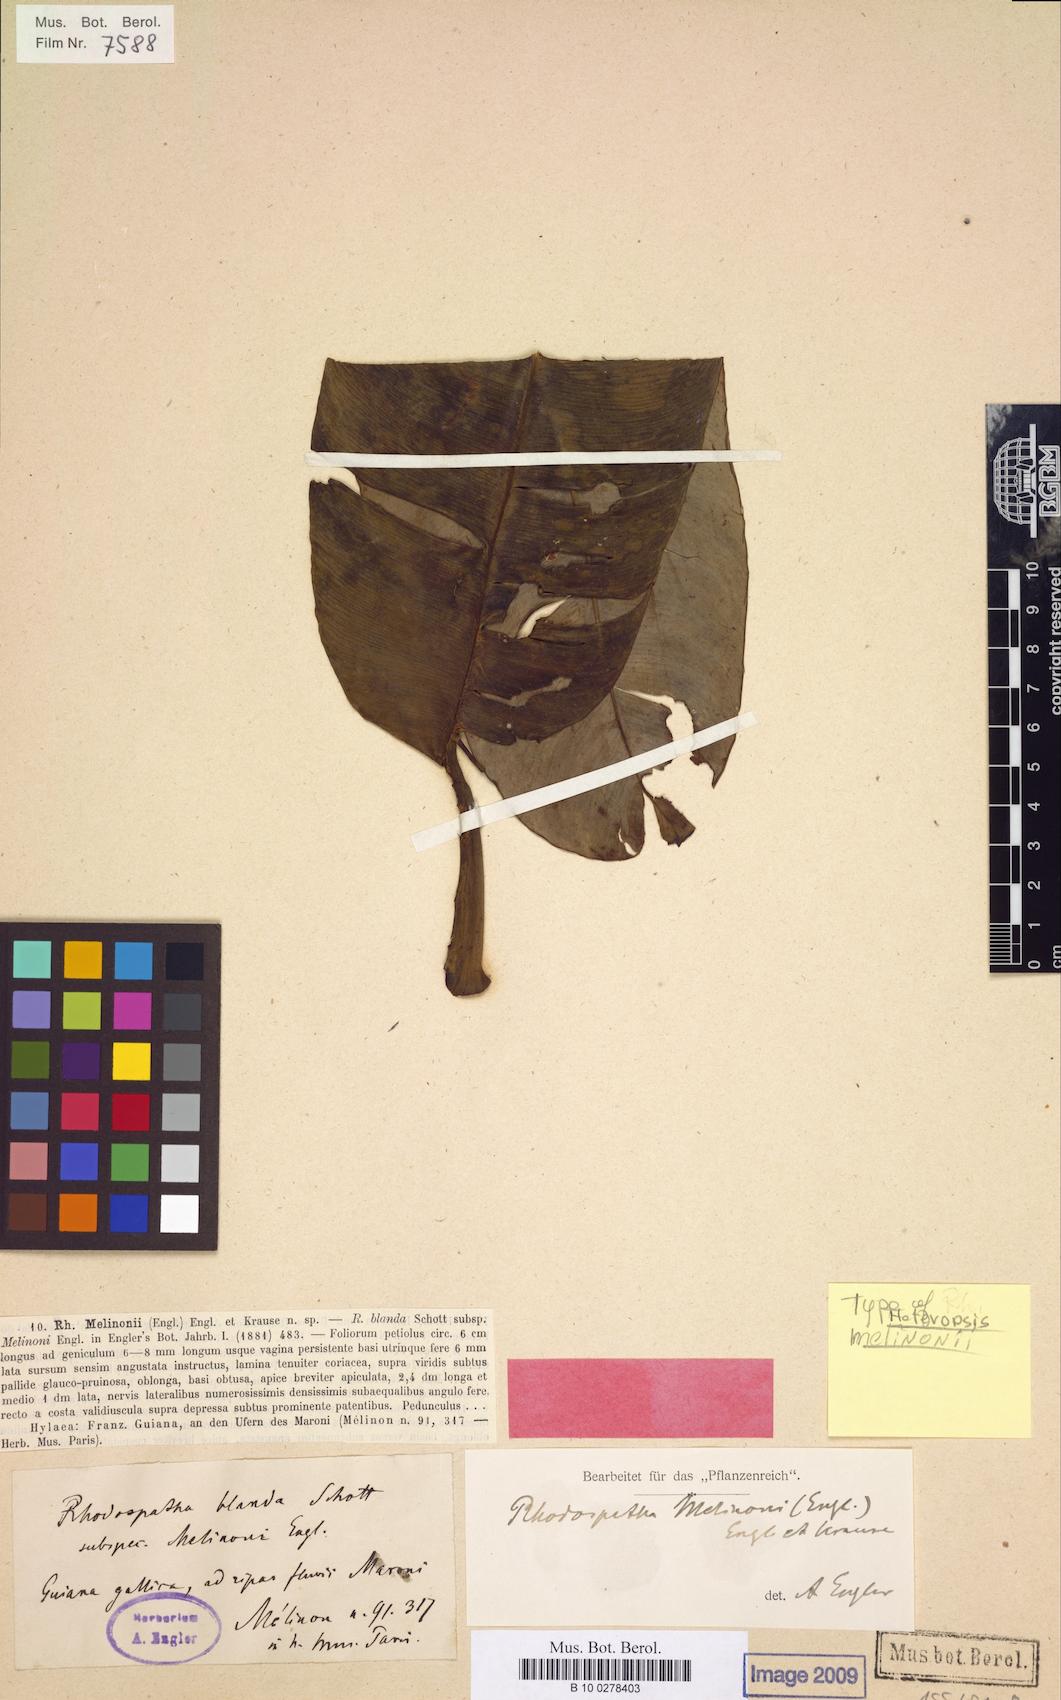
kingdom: Plantae
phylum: Tracheophyta
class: Liliopsida
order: Alismatales
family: Araceae
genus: Heteropsis
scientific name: Heteropsis melinonii
